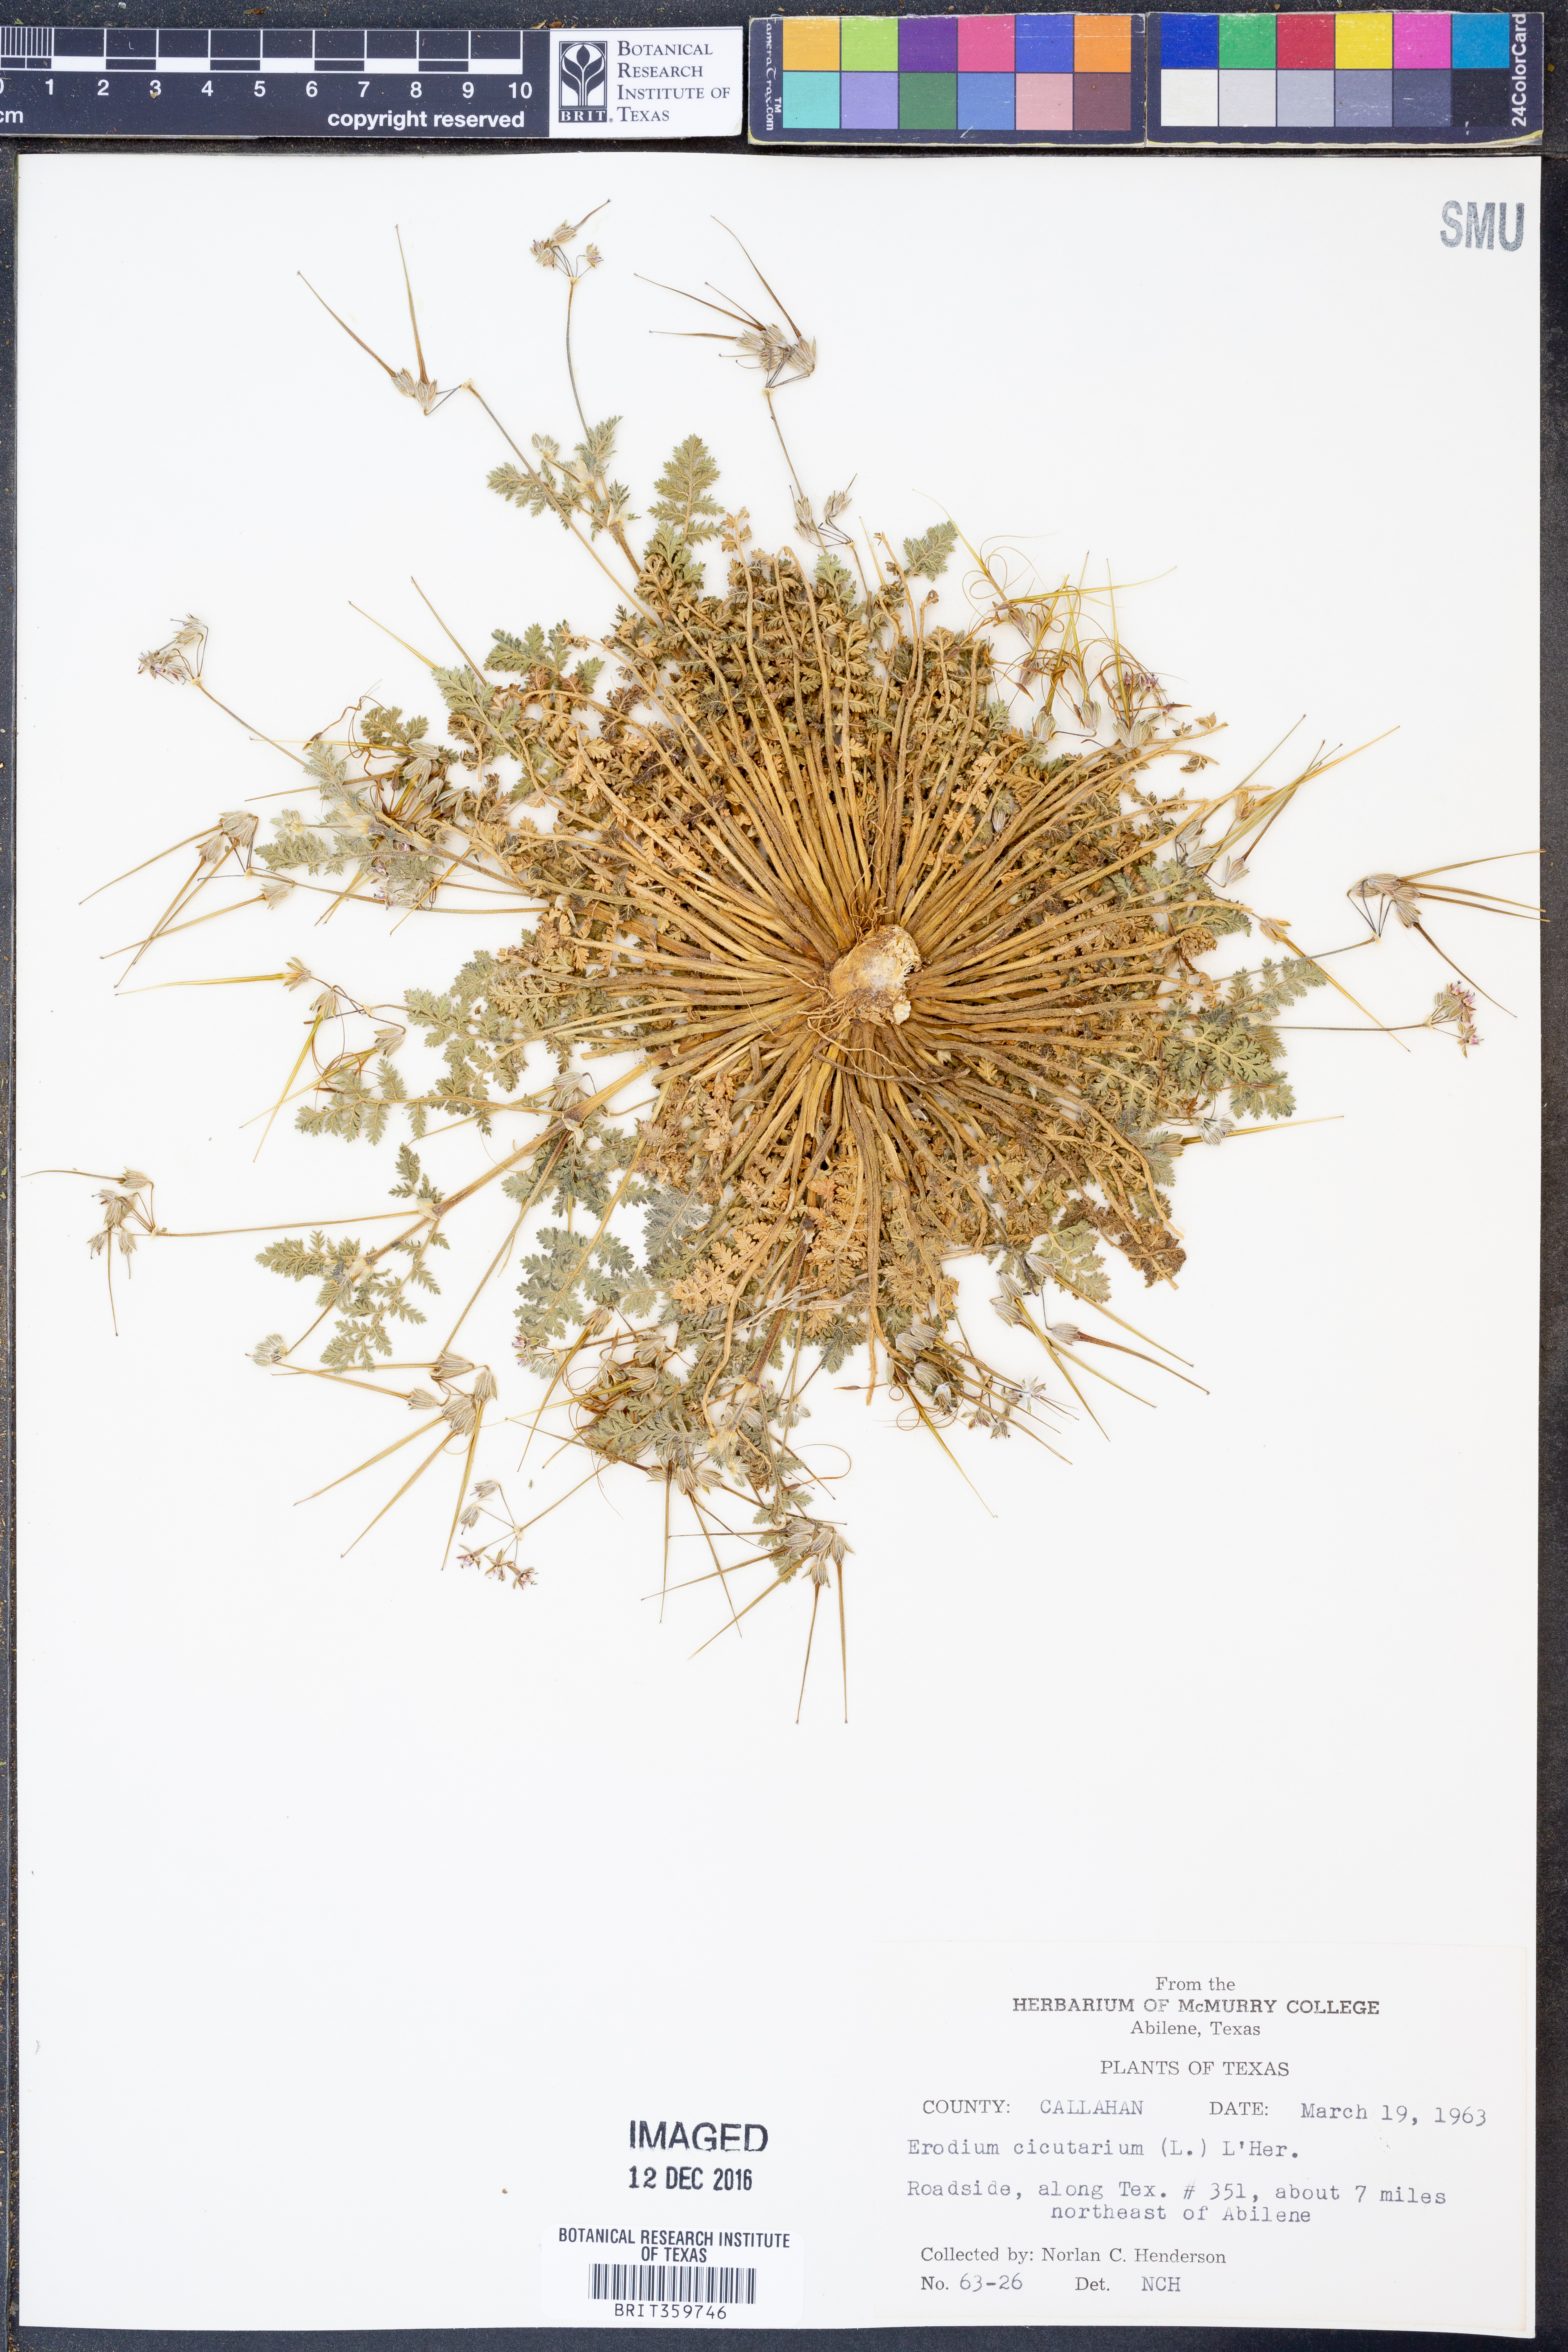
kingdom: Plantae
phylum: Tracheophyta
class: Magnoliopsida
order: Geraniales
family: Geraniaceae
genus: Erodium
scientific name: Erodium cicutarium
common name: Common stork's-bill
